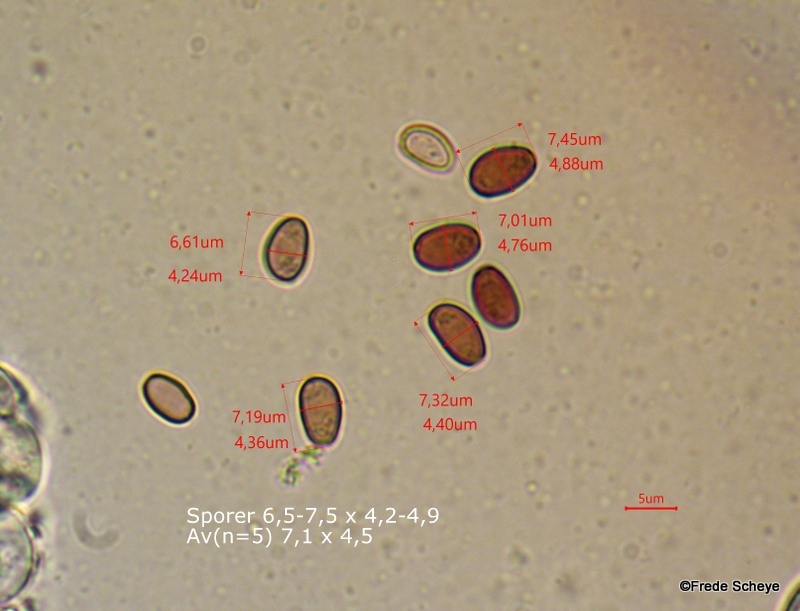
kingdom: Fungi
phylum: Basidiomycota
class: Agaricomycetes
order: Agaricales
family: Psathyrellaceae
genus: Candolleomyces
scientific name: Candolleomyces candolleanus
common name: Candolles mørkhat
